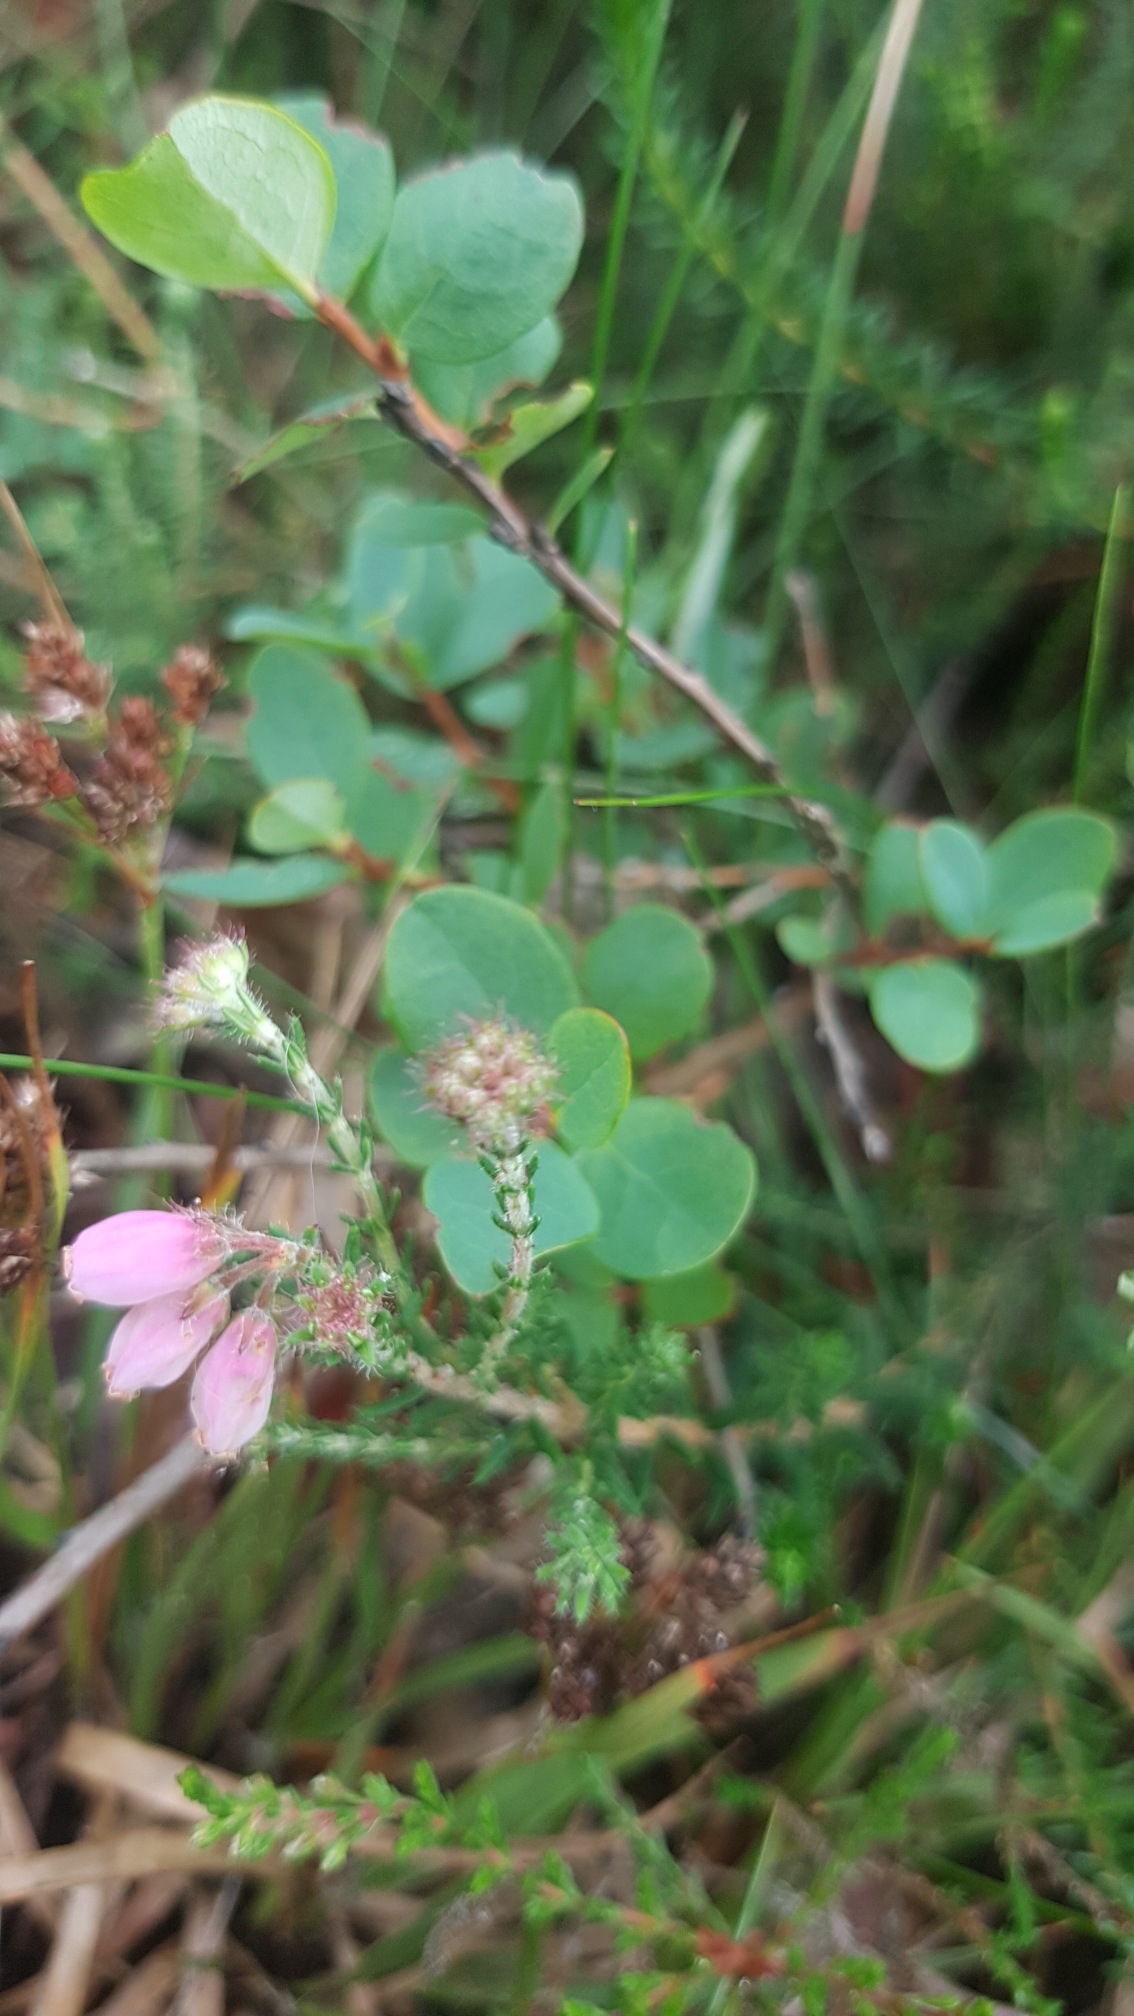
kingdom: Plantae
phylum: Tracheophyta
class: Magnoliopsida
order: Ericales
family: Ericaceae
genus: Erica
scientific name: Erica tetralix
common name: Klokkelyng
